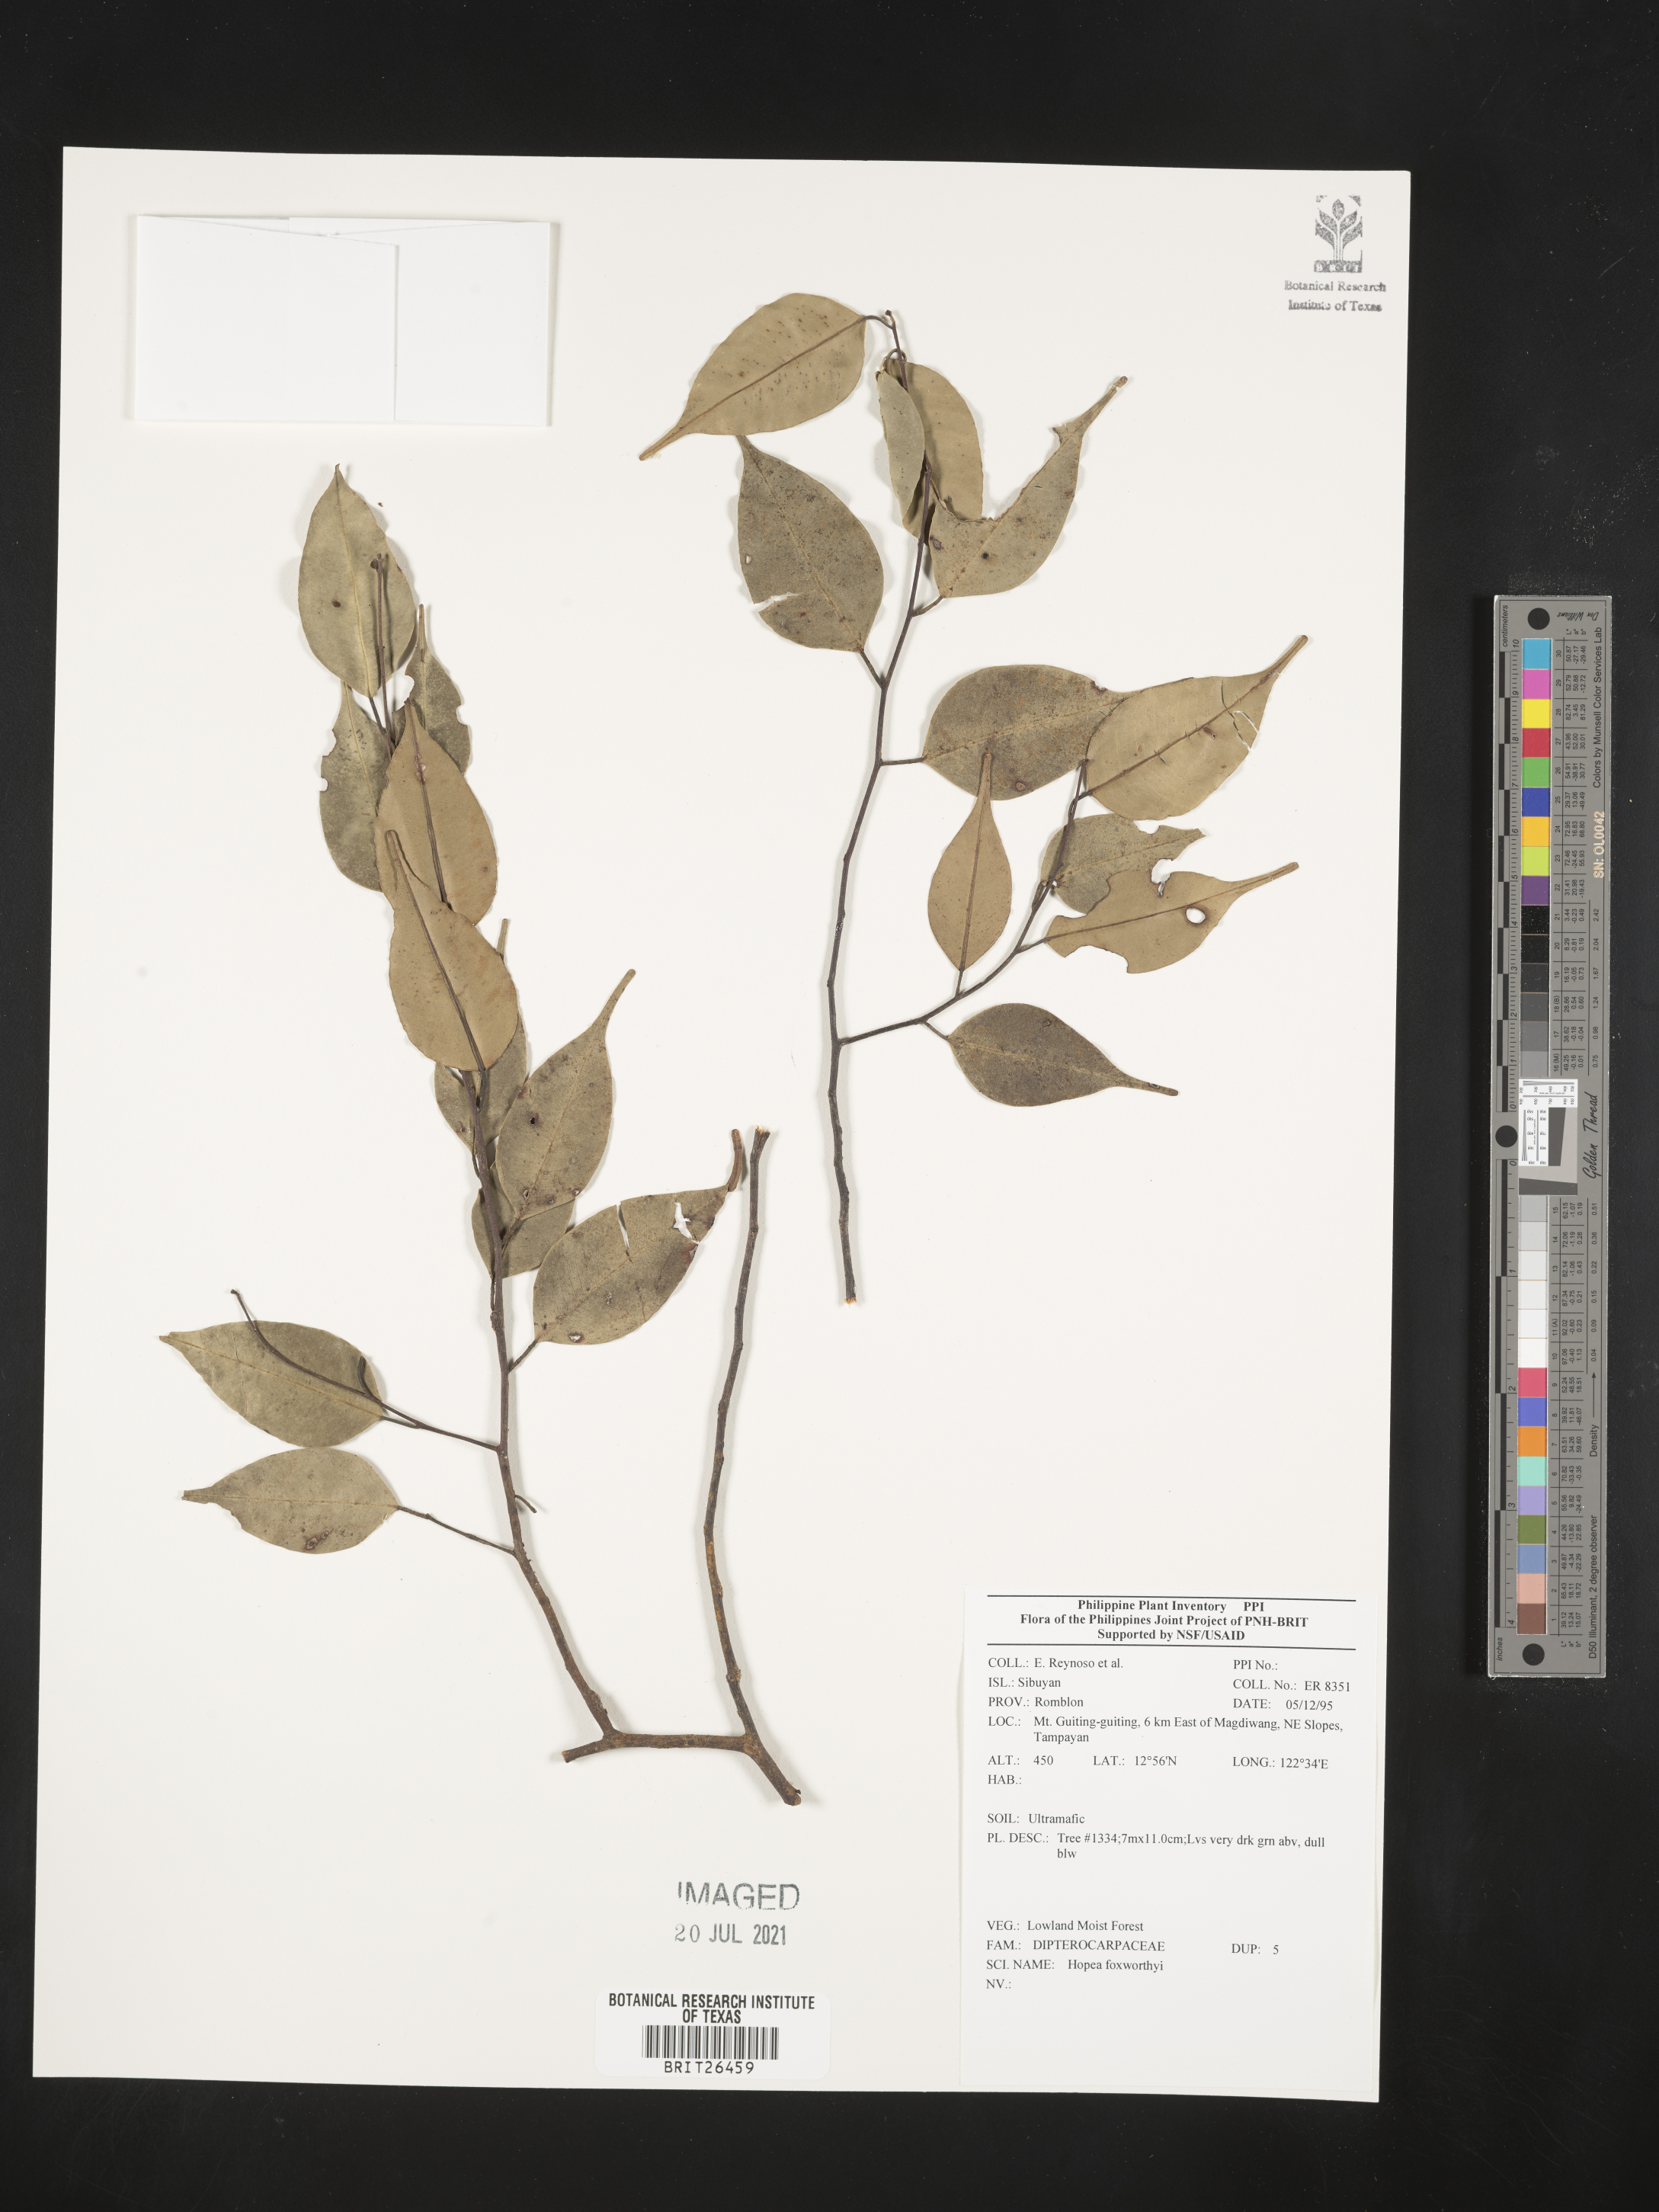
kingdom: Plantae
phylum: Tracheophyta
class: Magnoliopsida
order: Malvales
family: Dipterocarpaceae
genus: Hopea
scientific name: Hopea foxworthyi
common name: Dalingdingan
